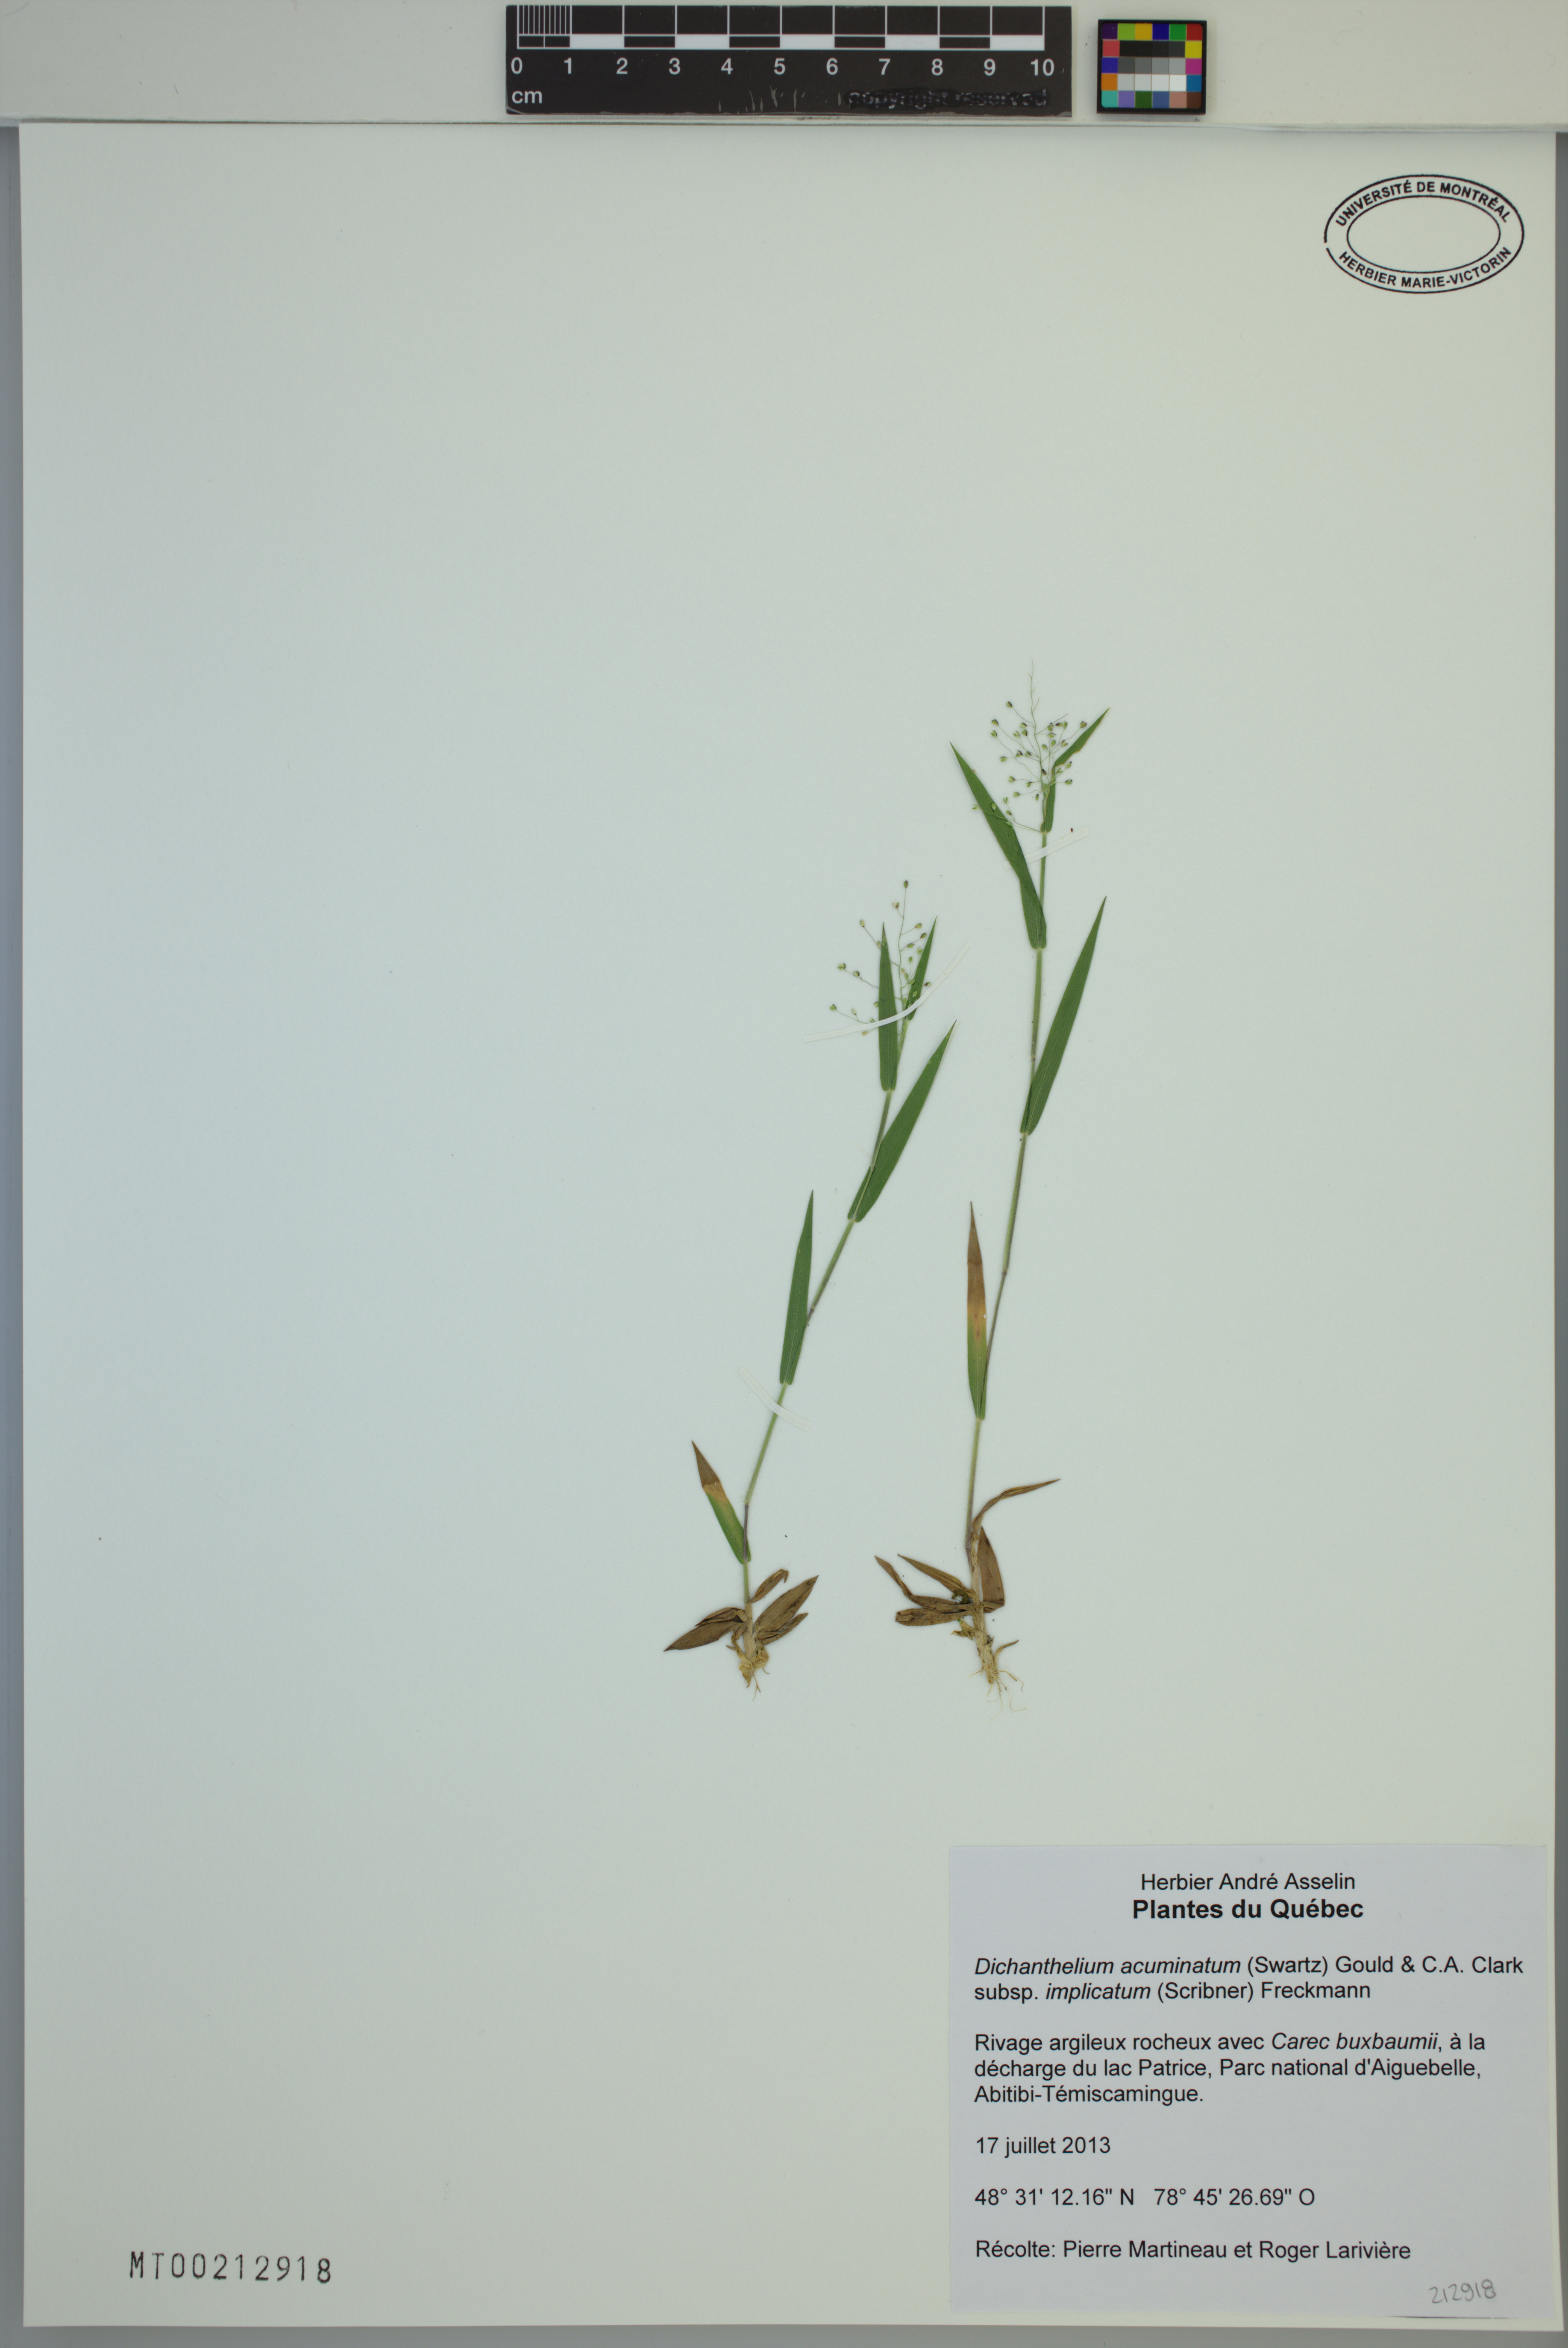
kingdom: Plantae
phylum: Tracheophyta
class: Liliopsida
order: Poales
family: Poaceae
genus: Dichanthelium
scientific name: Dichanthelium implicatum
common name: Slender-stemmed panicgrass
